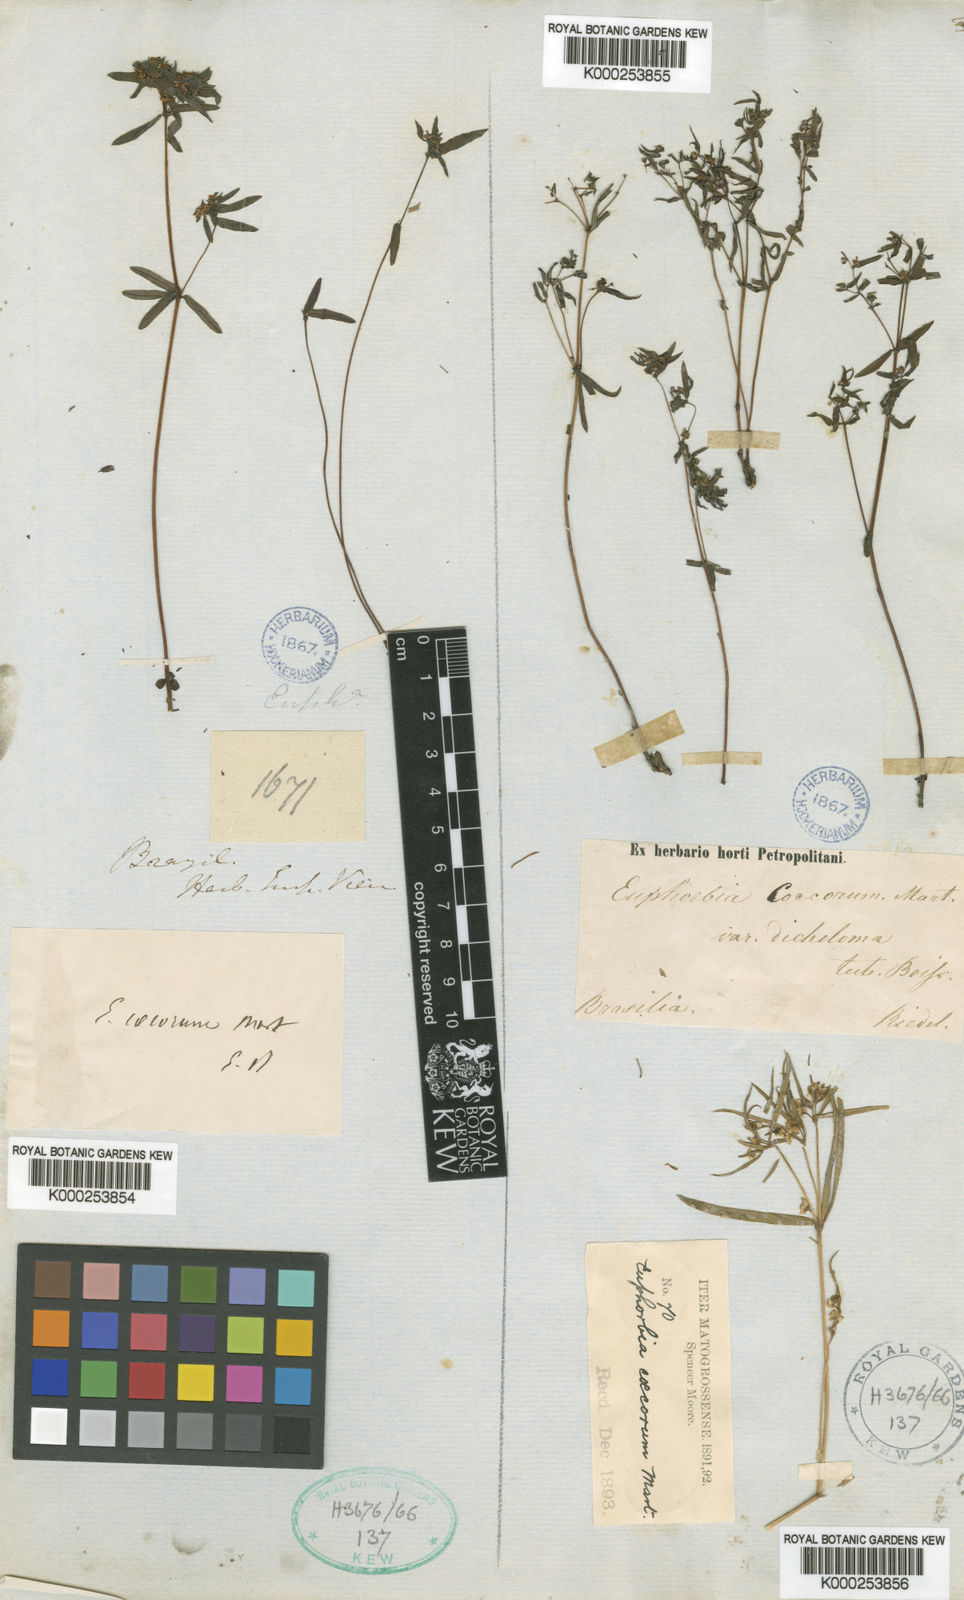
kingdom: Plantae
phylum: Tracheophyta
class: Magnoliopsida
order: Malpighiales
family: Euphorbiaceae
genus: Euphorbia
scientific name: Euphorbia potentilloides
